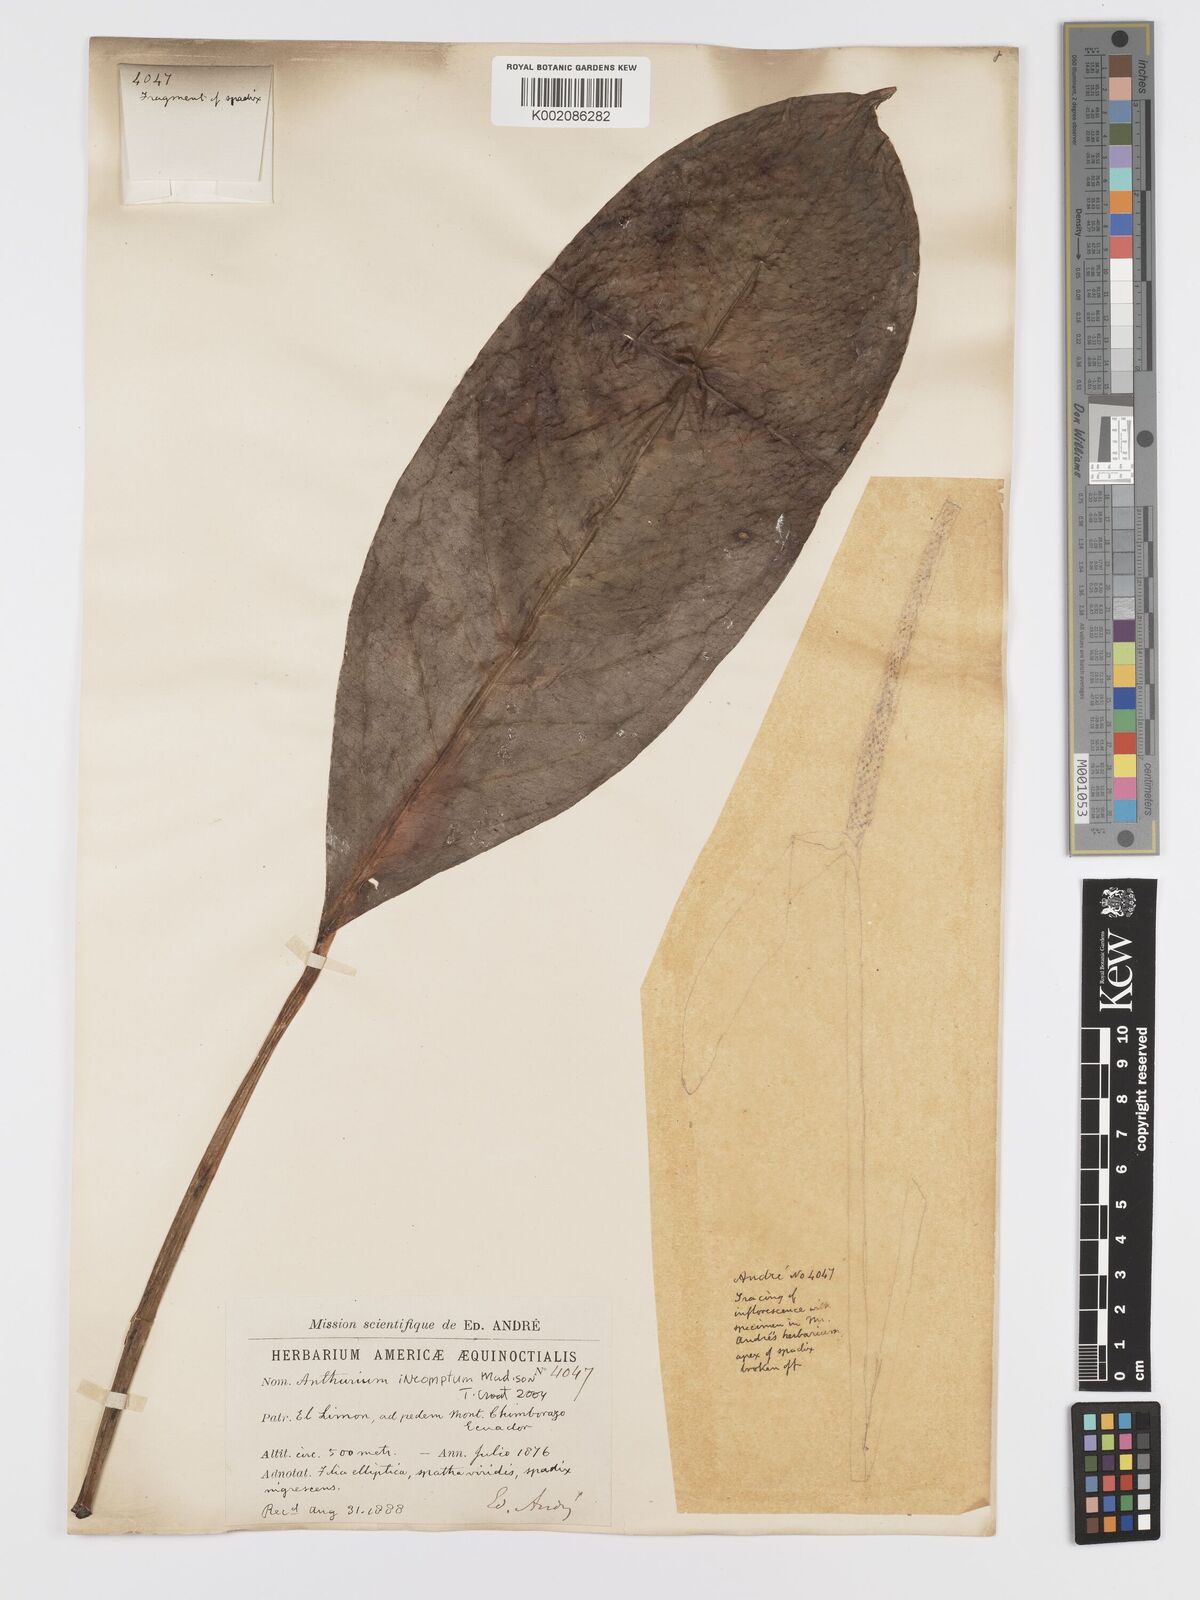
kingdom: Plantae
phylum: Tracheophyta
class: Liliopsida
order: Alismatales
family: Araceae
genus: Anthurium
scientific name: Anthurium incomptum
